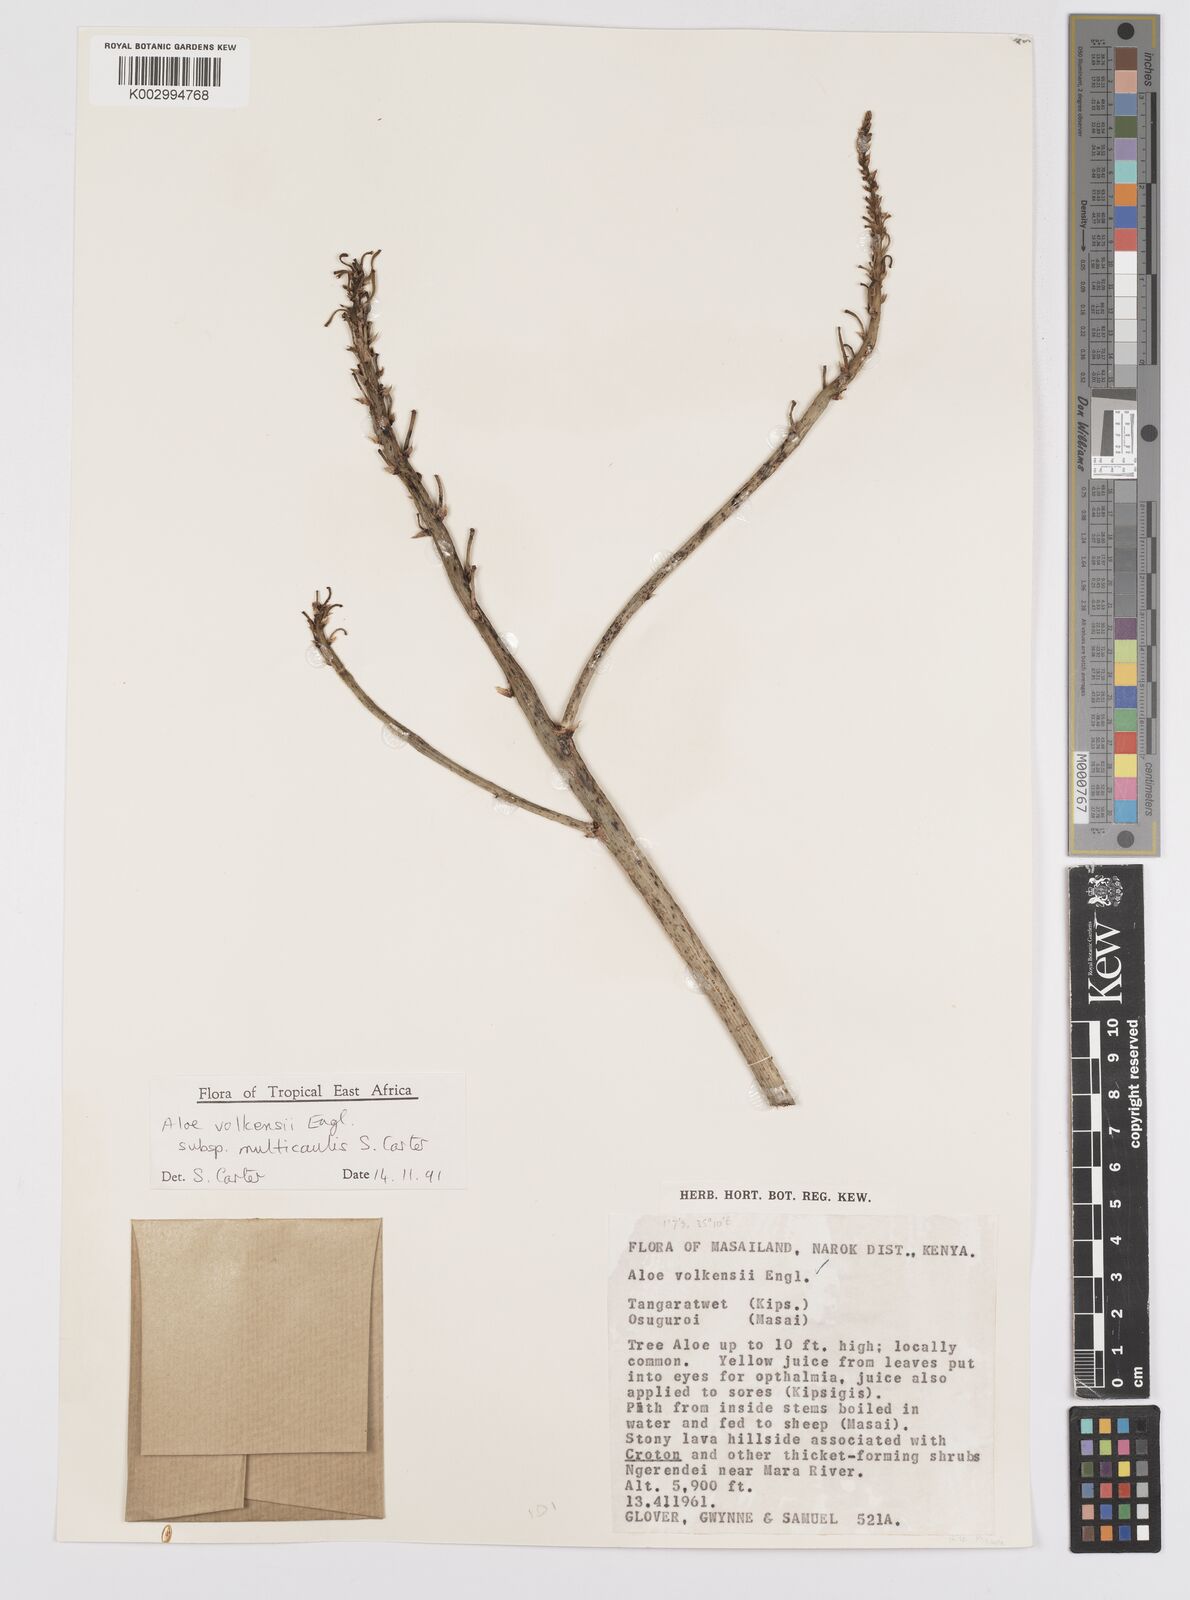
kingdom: Plantae
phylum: Tracheophyta
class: Liliopsida
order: Asparagales
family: Asphodelaceae
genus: Aloe
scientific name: Aloe volkensii
